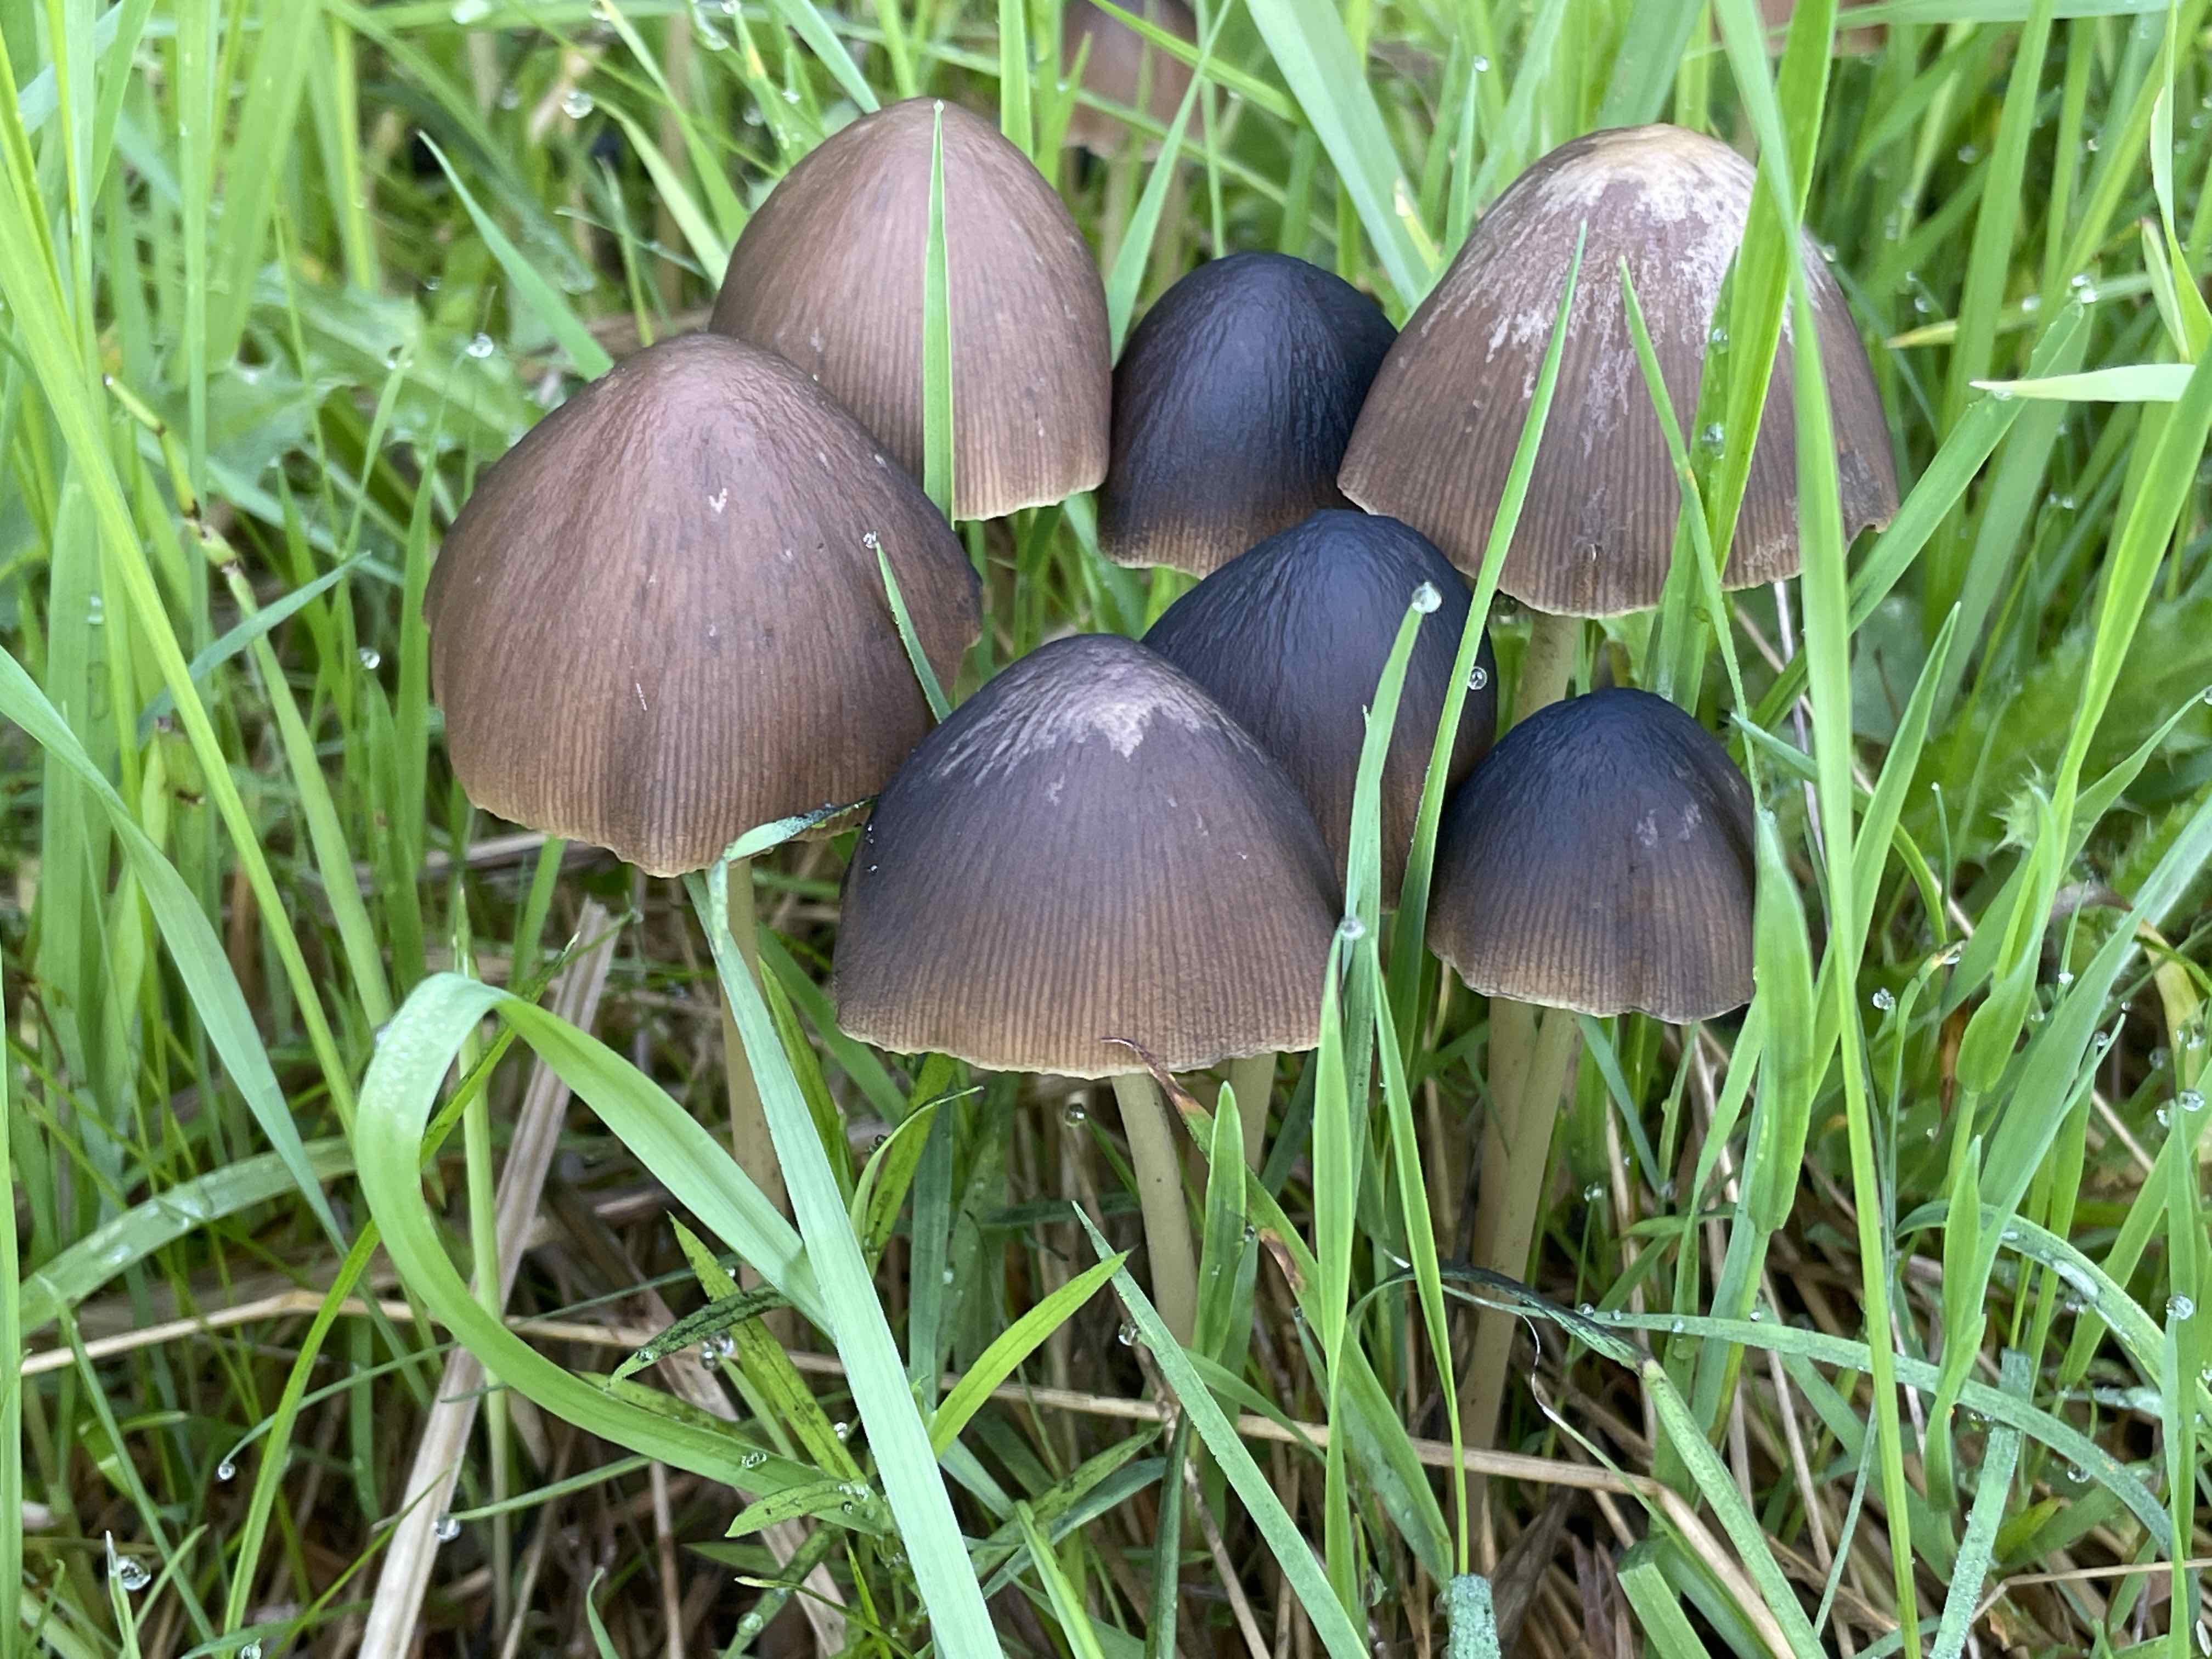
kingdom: Fungi
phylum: Basidiomycota
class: Agaricomycetes
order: Agaricales
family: Psathyrellaceae
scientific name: Psathyrellaceae
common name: mørkhatfamilien
